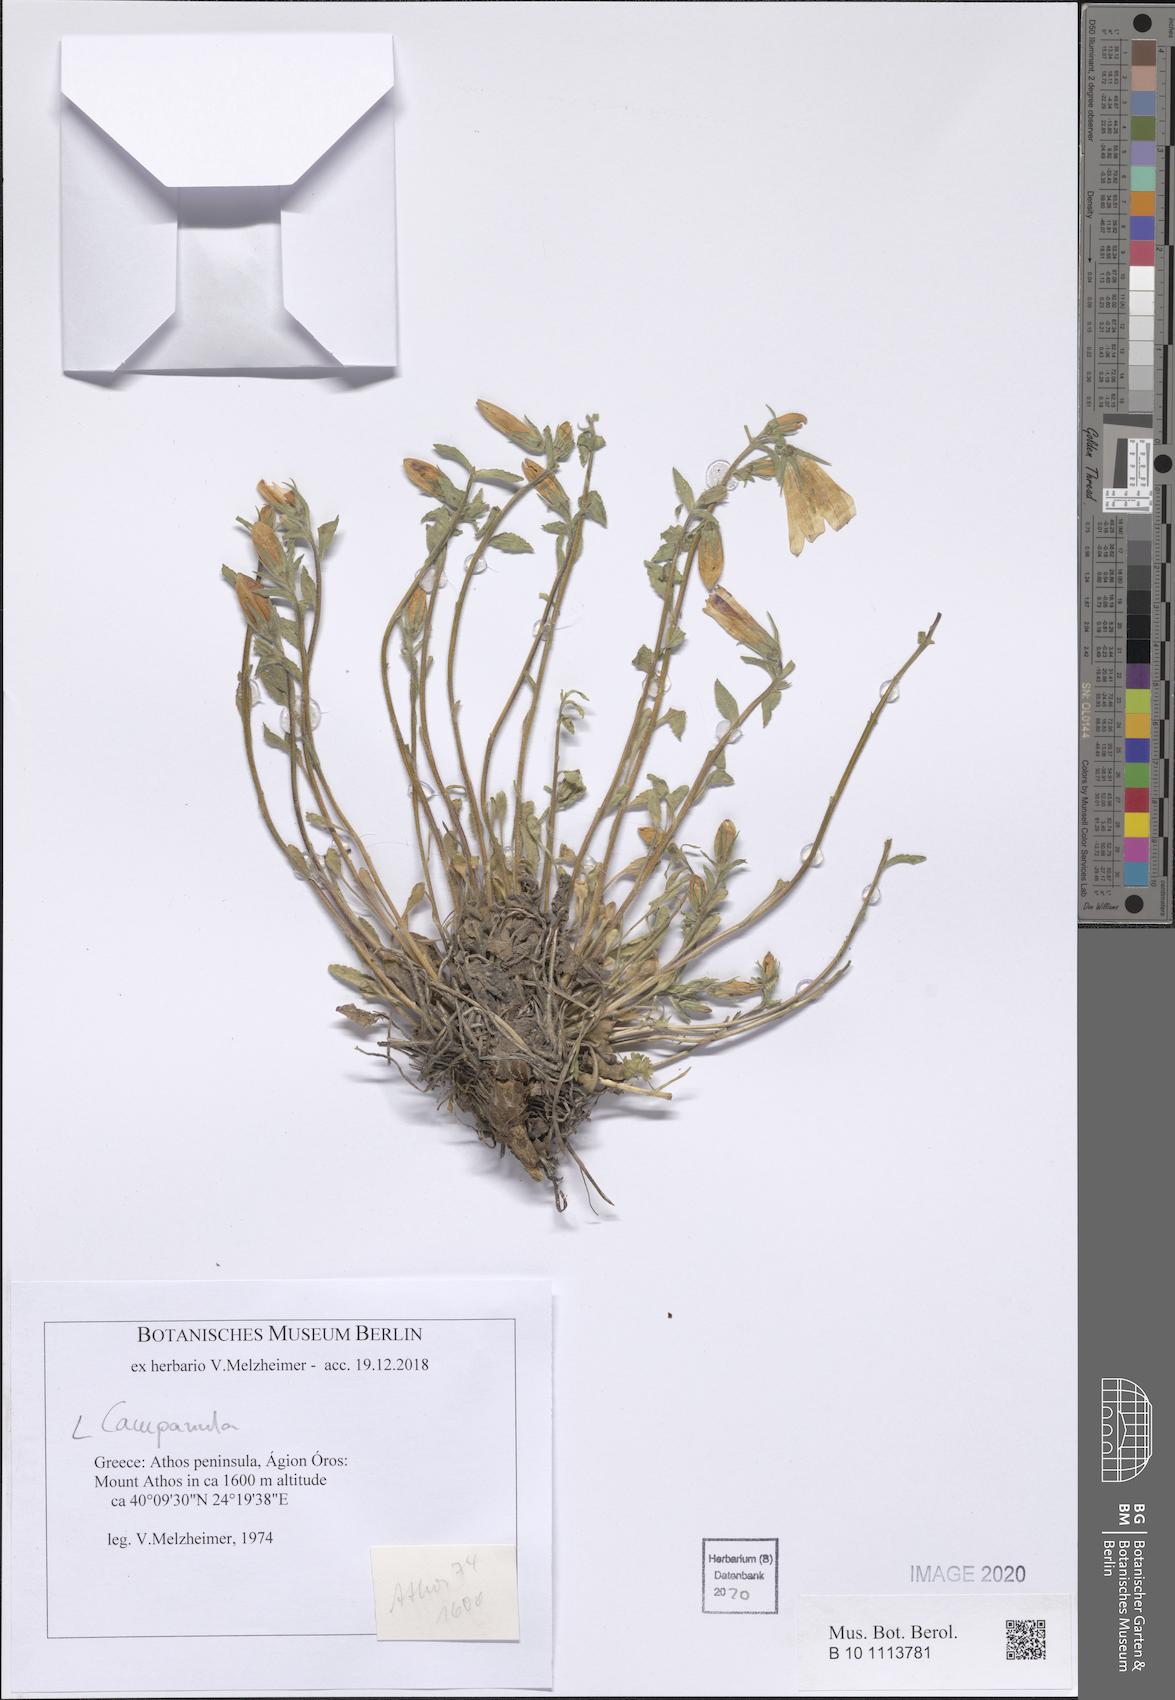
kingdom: Plantae
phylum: Tracheophyta
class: Magnoliopsida
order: Asterales
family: Campanulaceae
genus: Campanula
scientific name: Campanula
